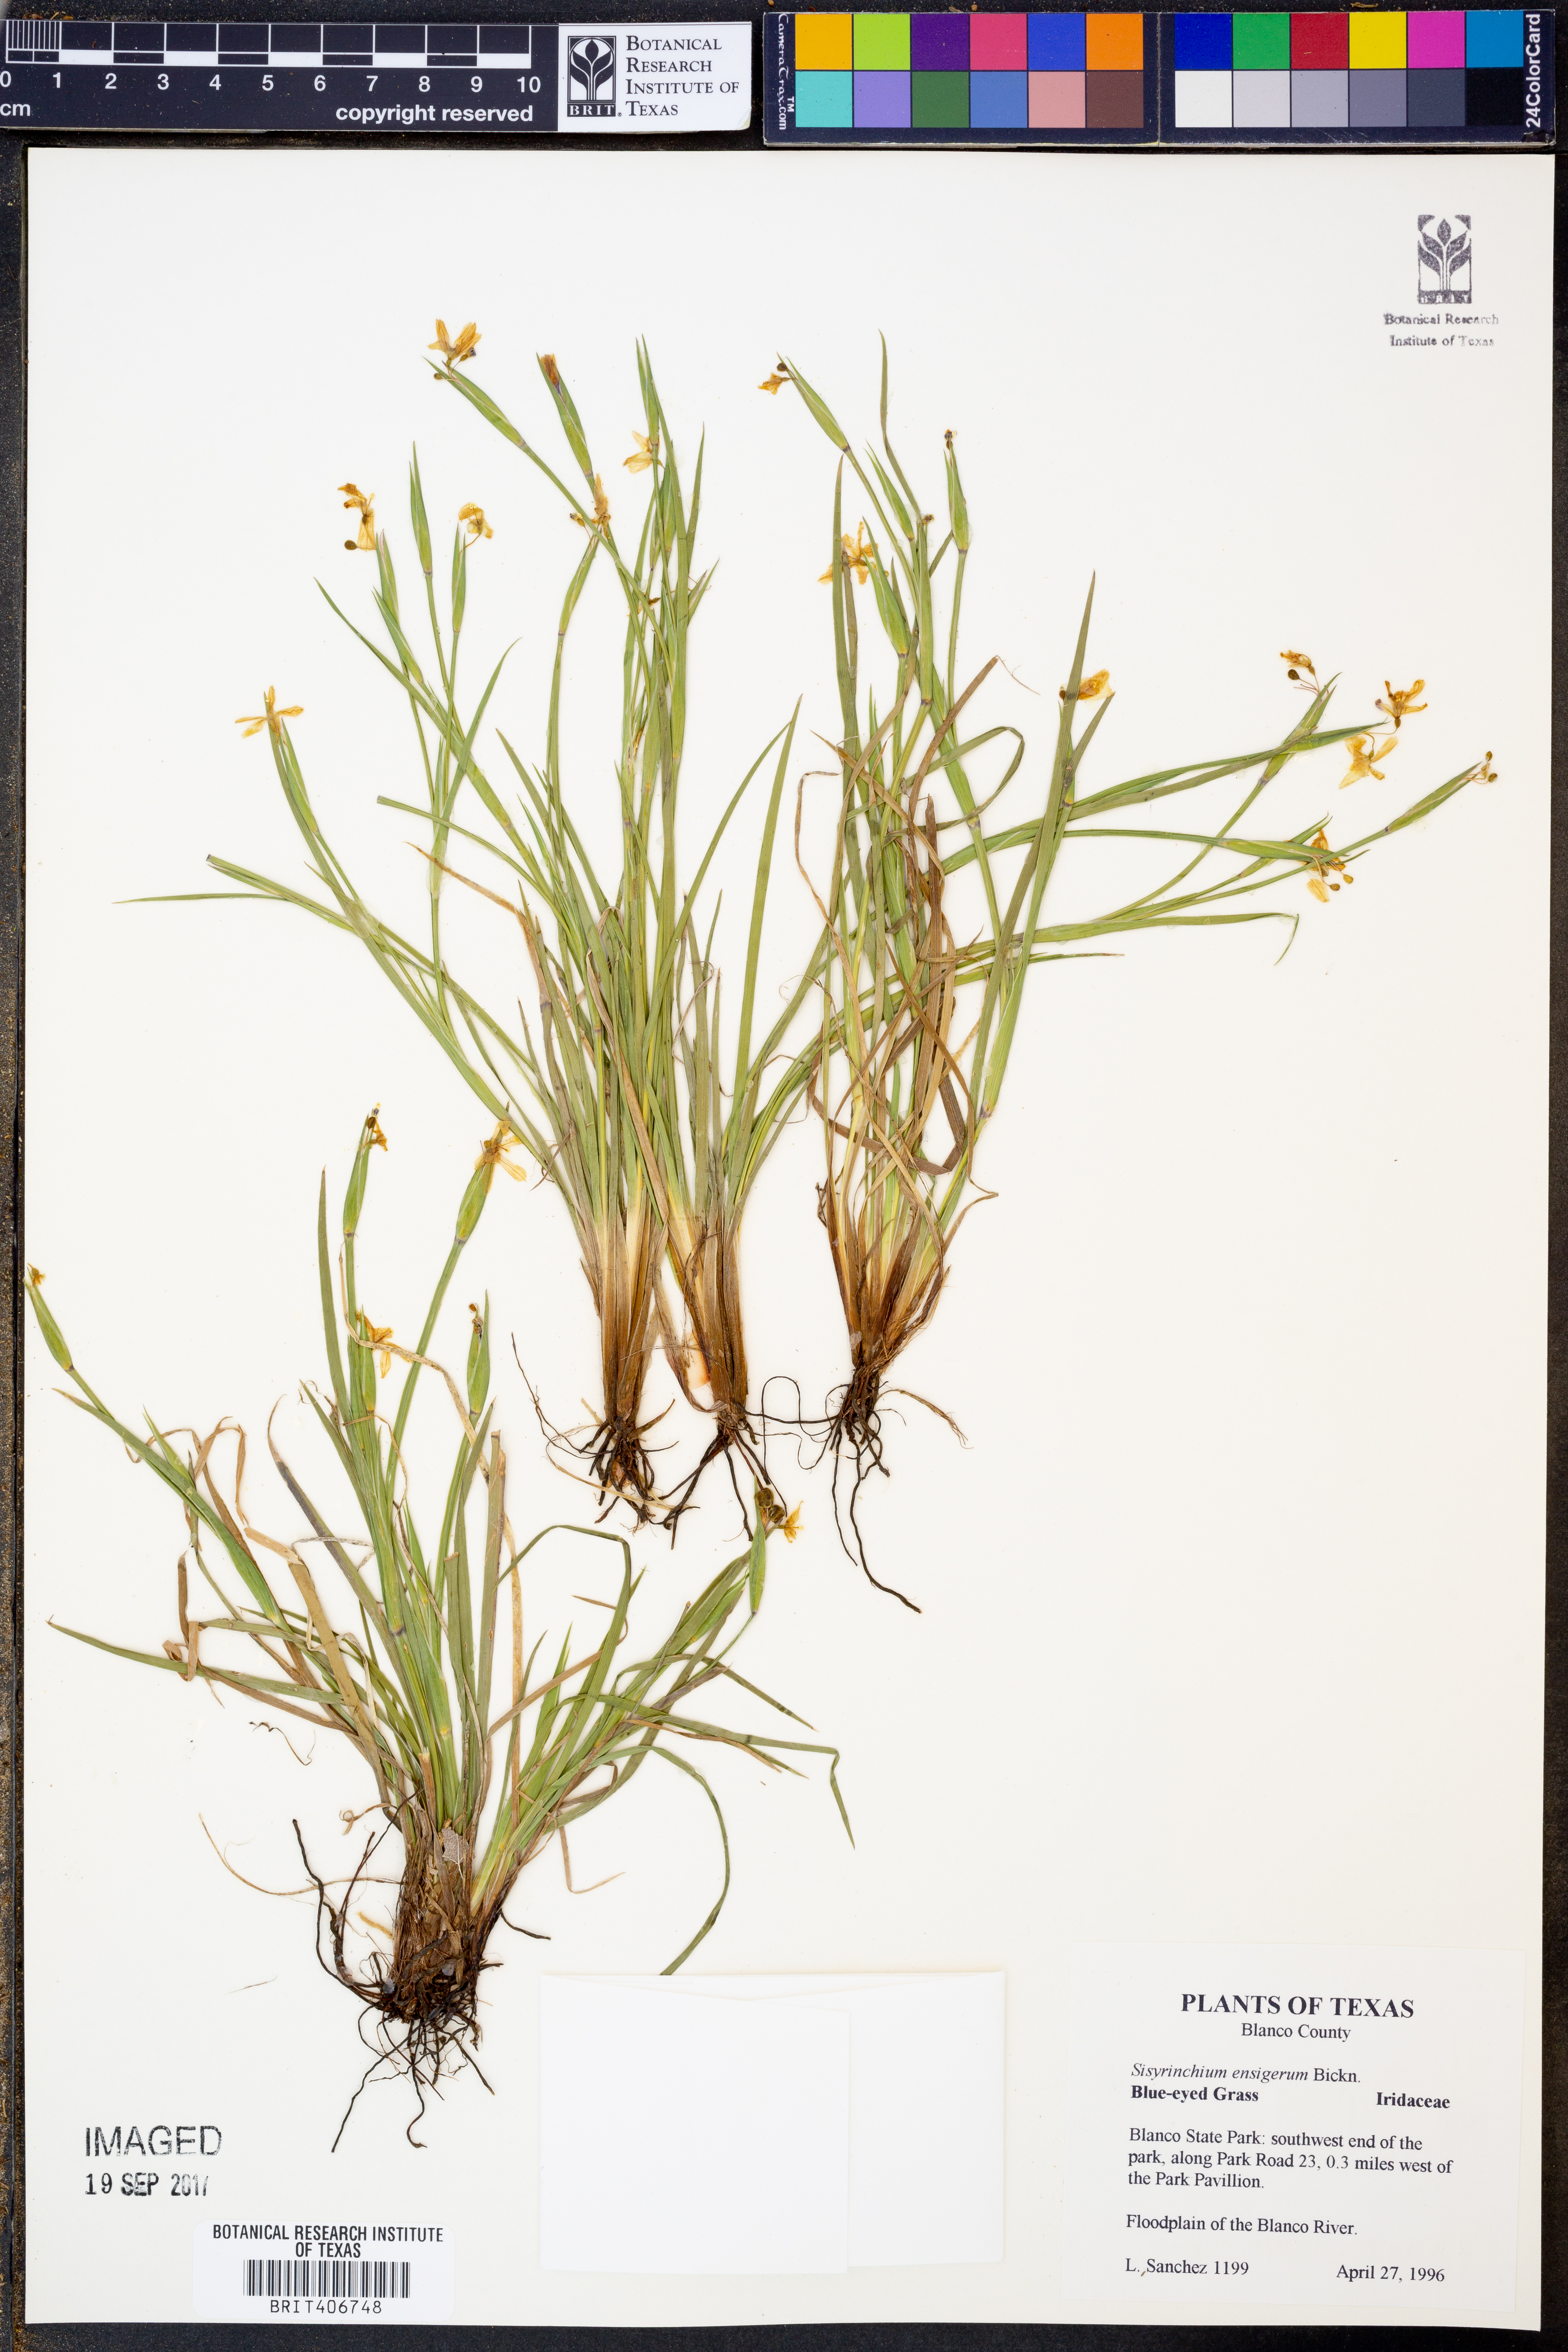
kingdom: Plantae
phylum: Tracheophyta
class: Liliopsida
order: Asparagales
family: Iridaceae
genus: Sisyrinchium
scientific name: Sisyrinchium ensigerum
